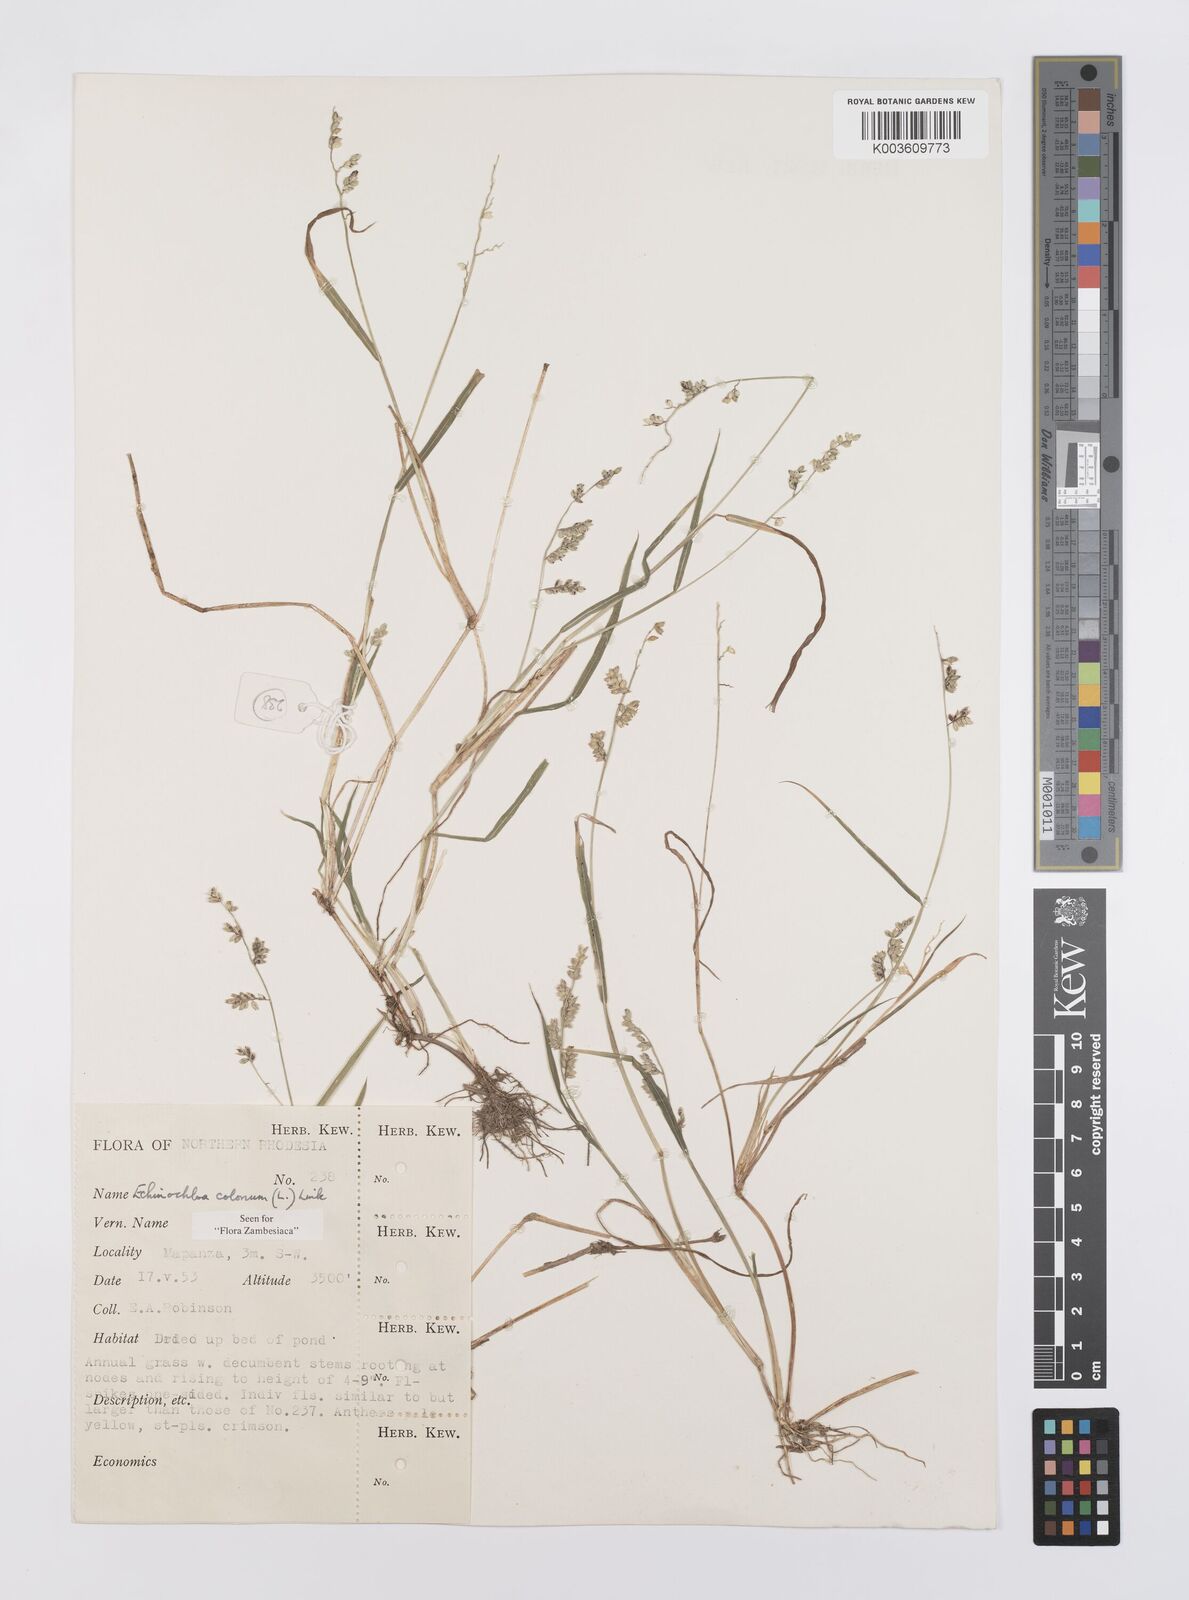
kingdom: Plantae
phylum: Tracheophyta
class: Liliopsida
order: Poales
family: Poaceae
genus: Echinochloa
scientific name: Echinochloa colonum
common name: Jungle rice
